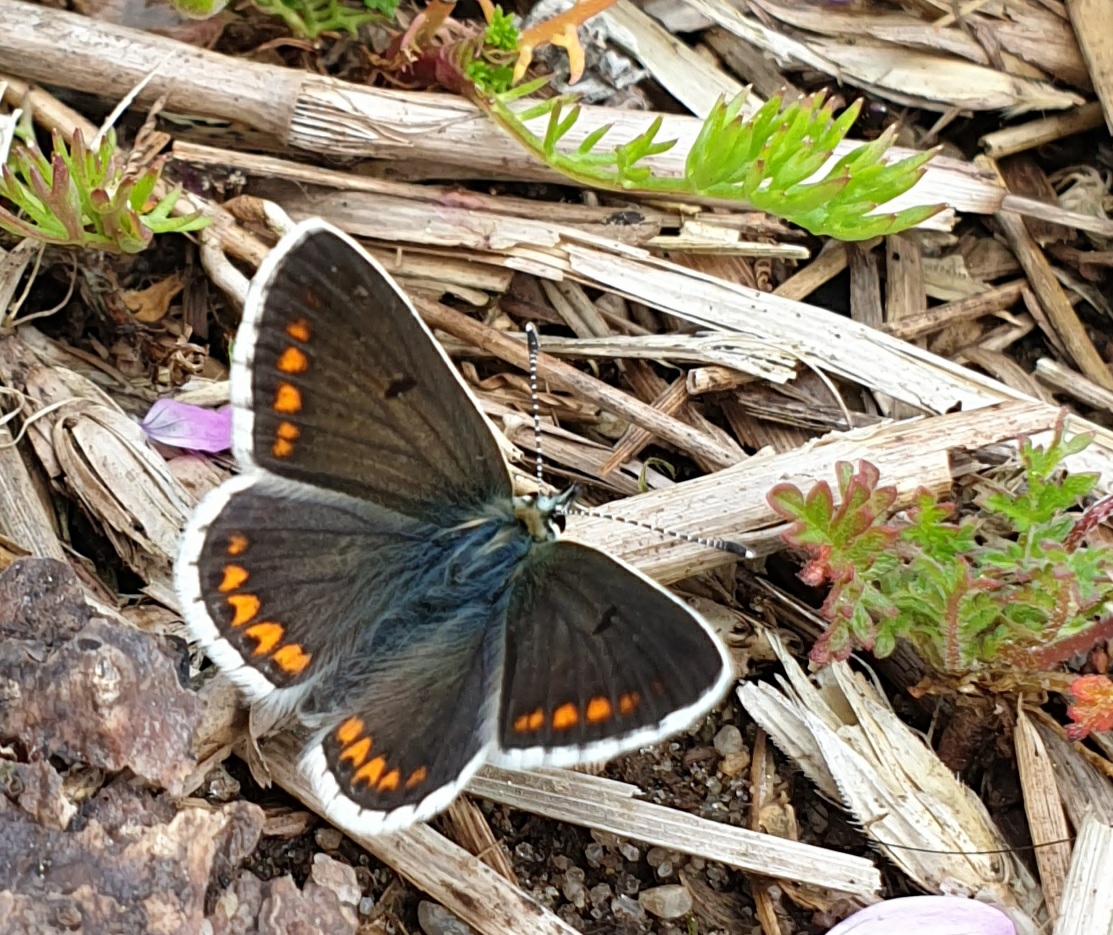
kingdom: Animalia
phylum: Arthropoda
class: Insecta
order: Lepidoptera
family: Lycaenidae
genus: Aricia
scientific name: Aricia agestis
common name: Rødplettet blåfugl
